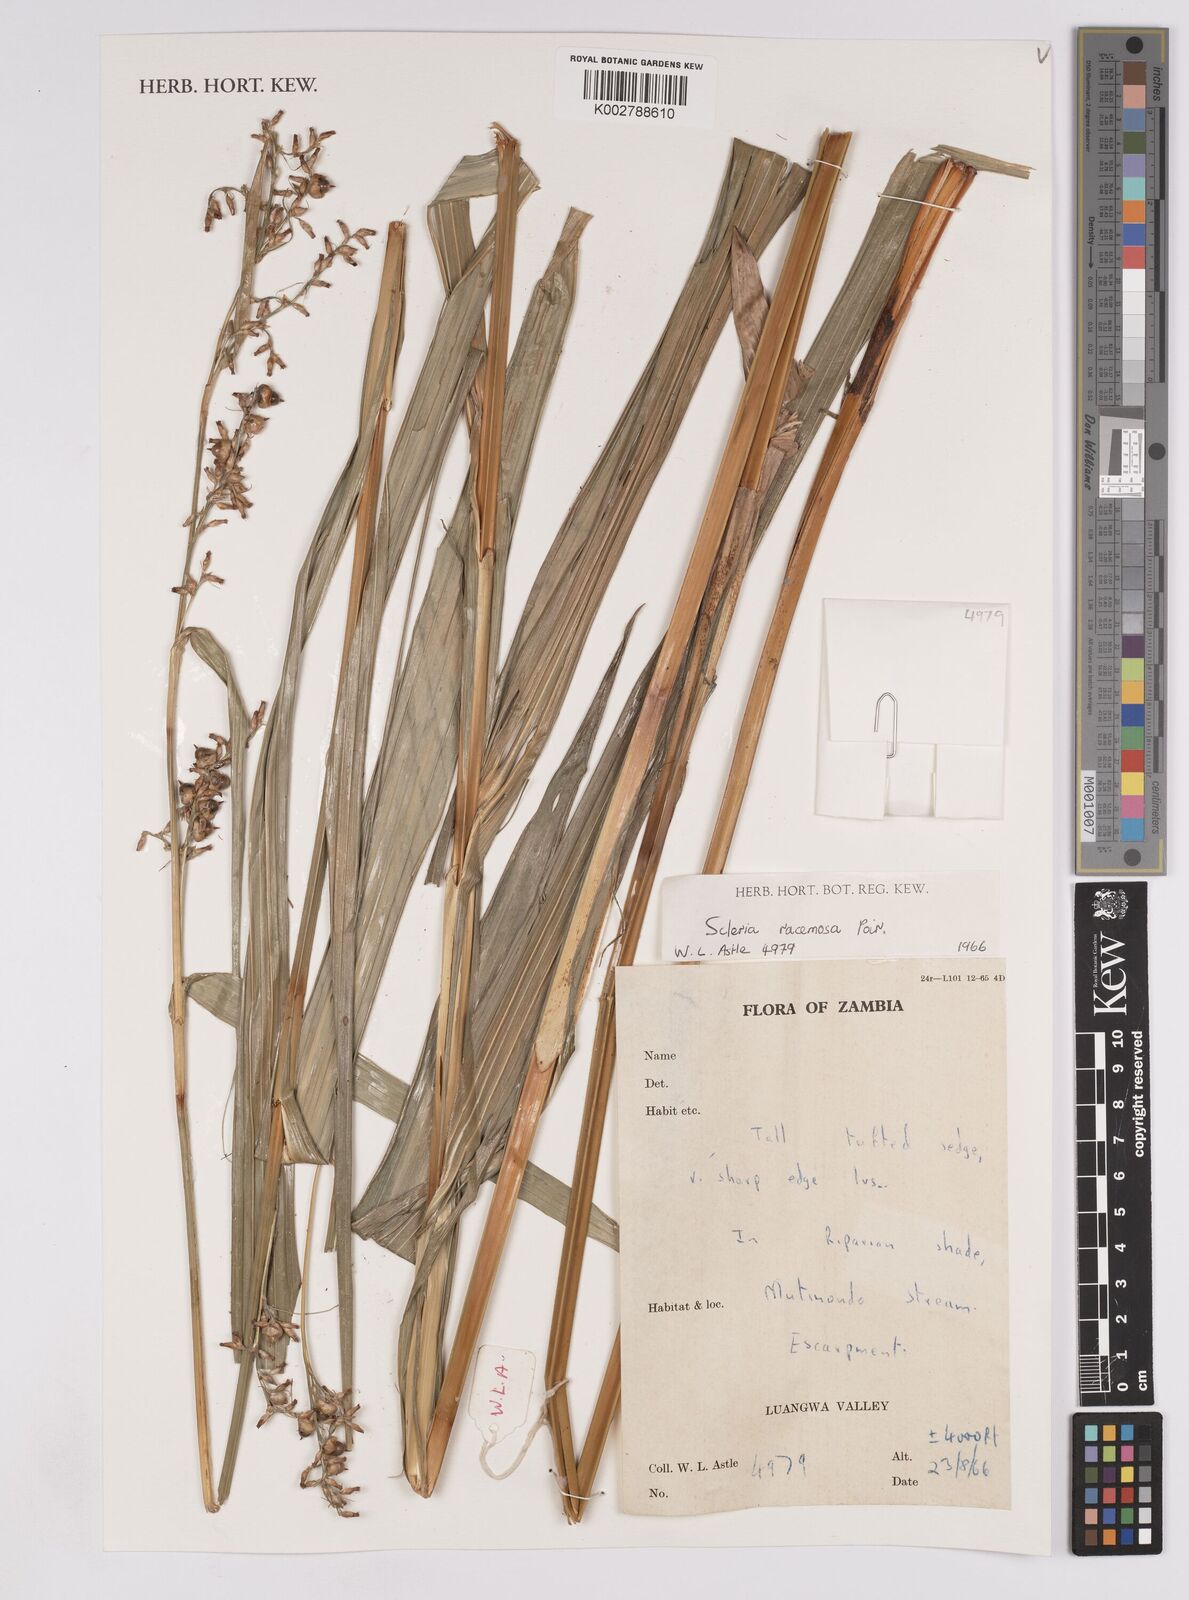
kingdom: Plantae
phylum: Tracheophyta
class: Liliopsida
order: Poales
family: Cyperaceae
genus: Scleria
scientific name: Scleria racemosa
